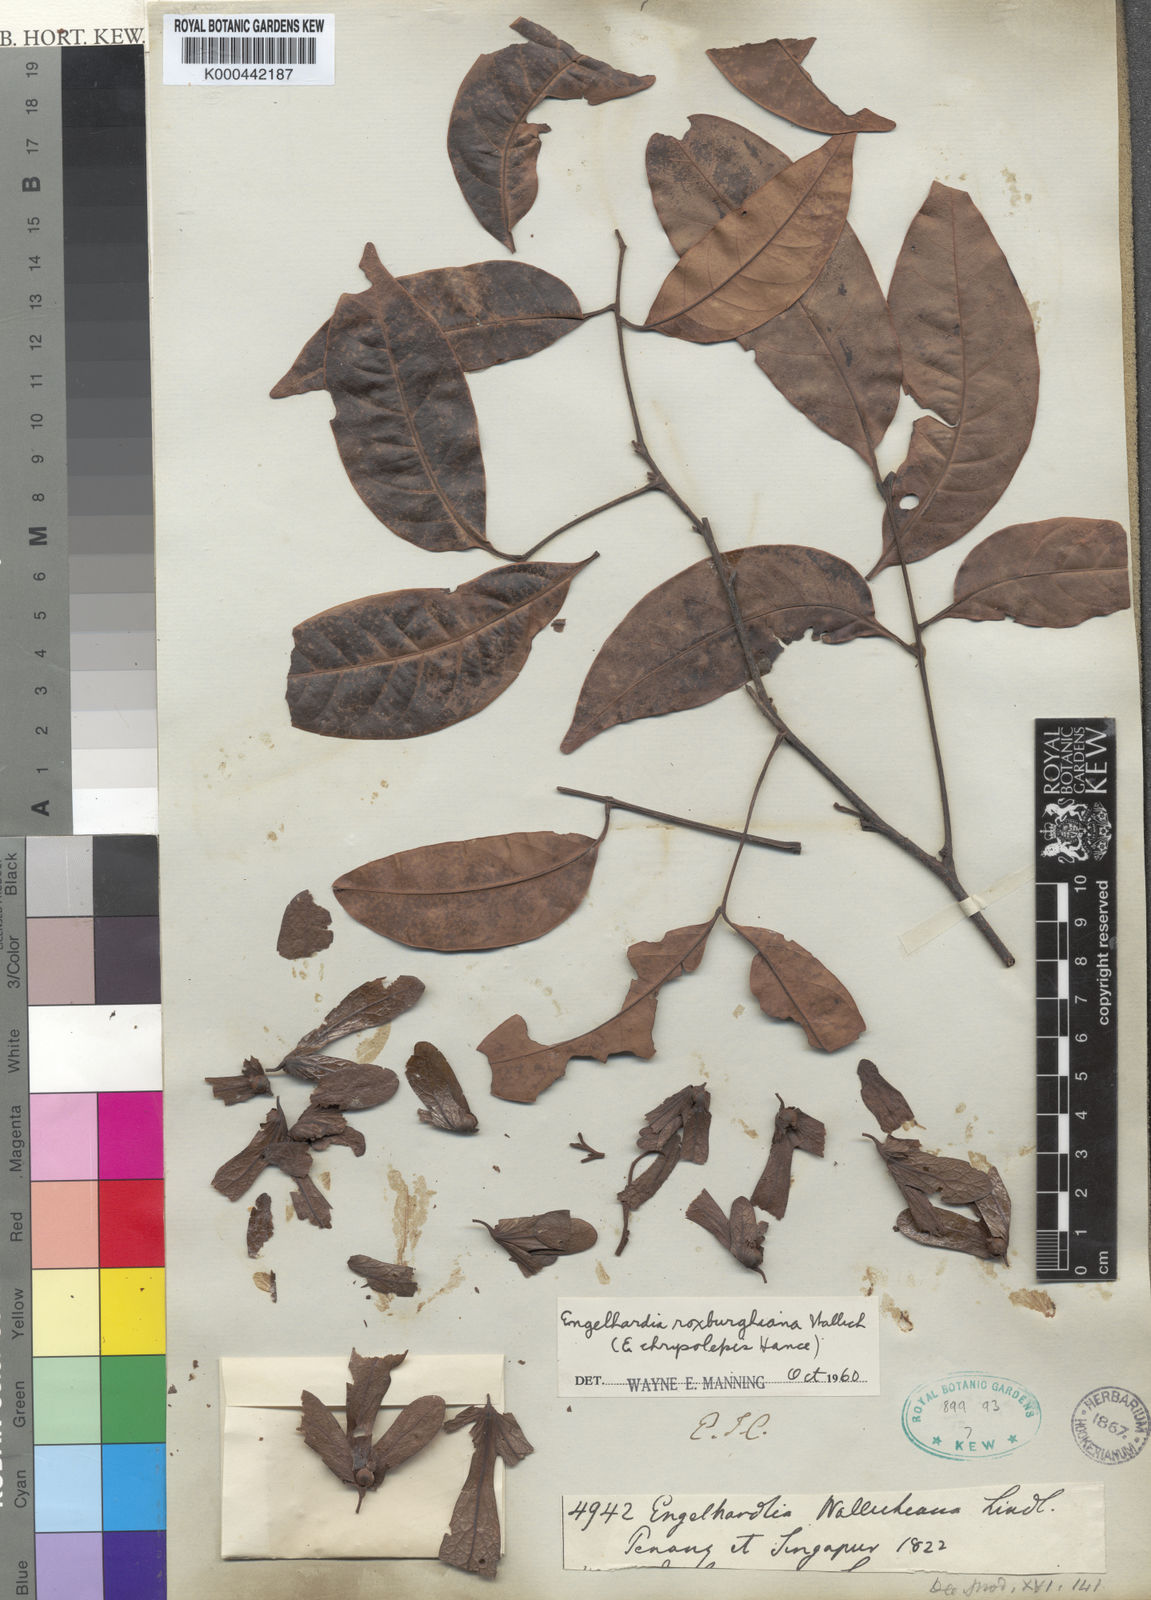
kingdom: Plantae
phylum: Tracheophyta
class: Magnoliopsida
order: Fagales
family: Juglandaceae
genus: Engelhardia
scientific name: Engelhardia spicata
